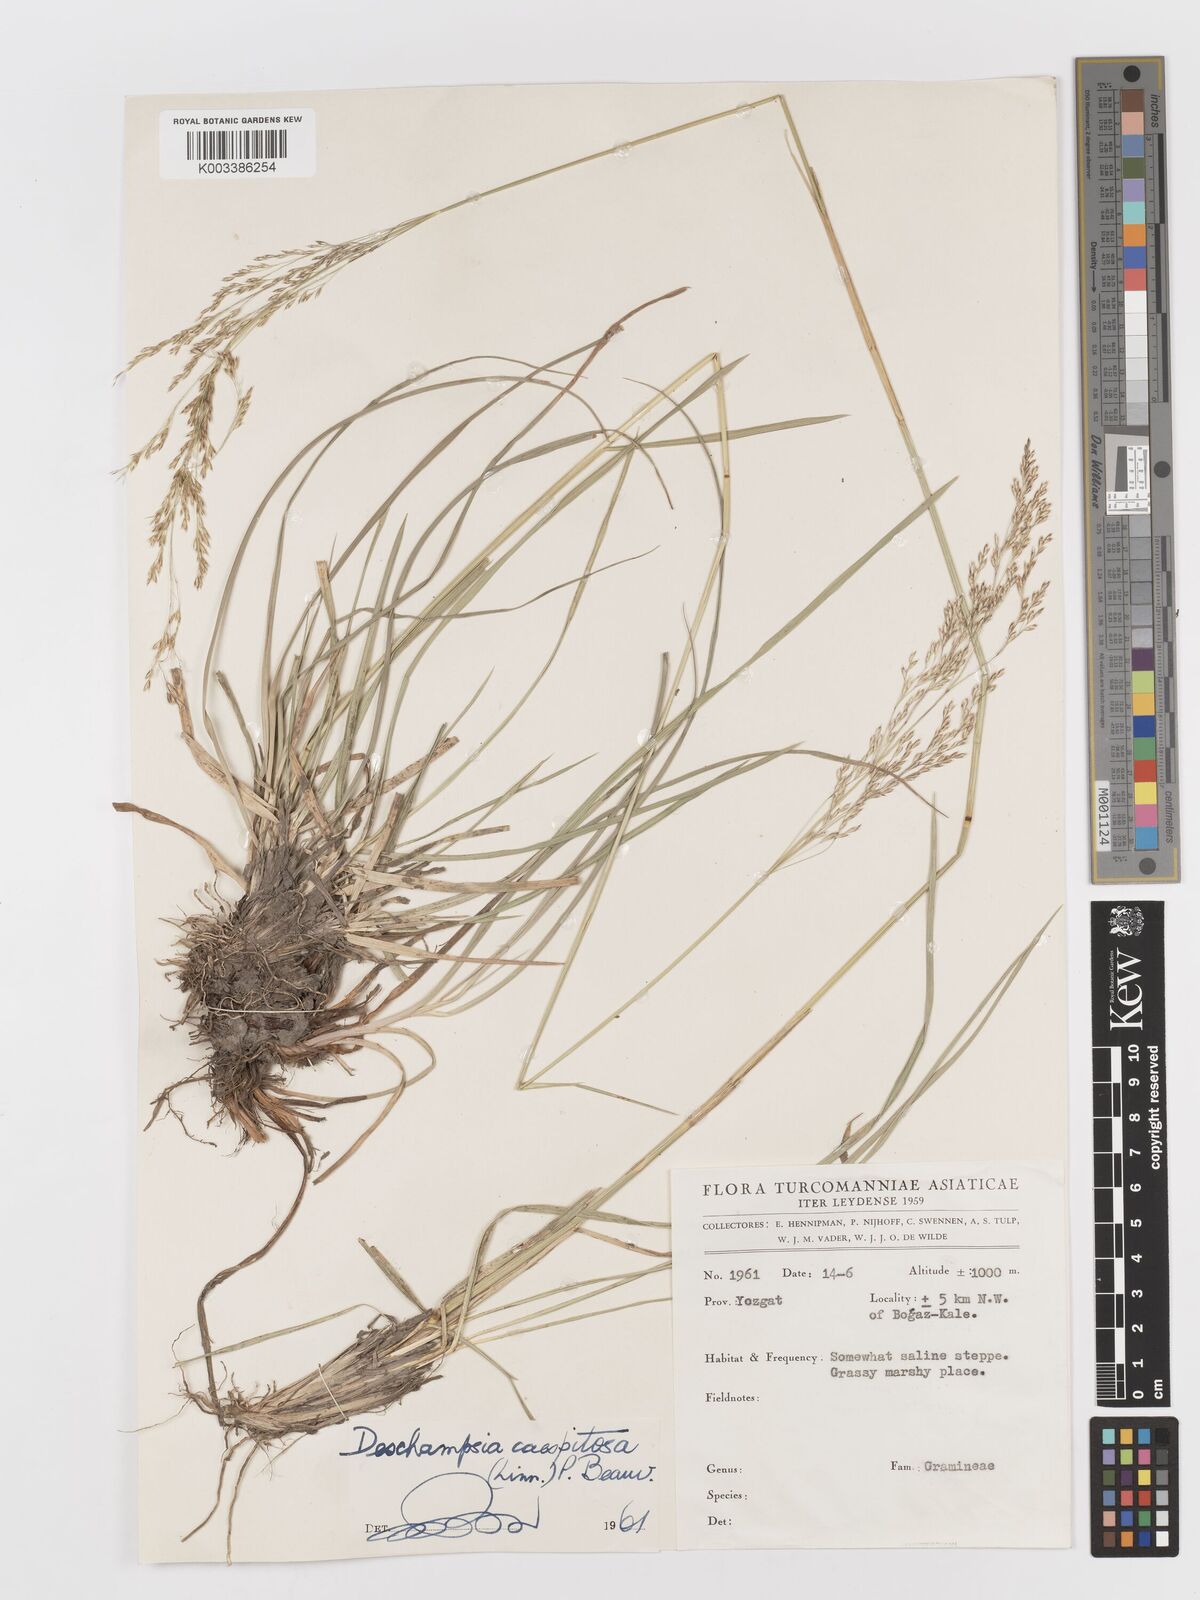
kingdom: Plantae
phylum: Tracheophyta
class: Liliopsida
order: Poales
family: Poaceae
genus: Deschampsia
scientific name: Deschampsia cespitosa
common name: Tufted hair-grass
